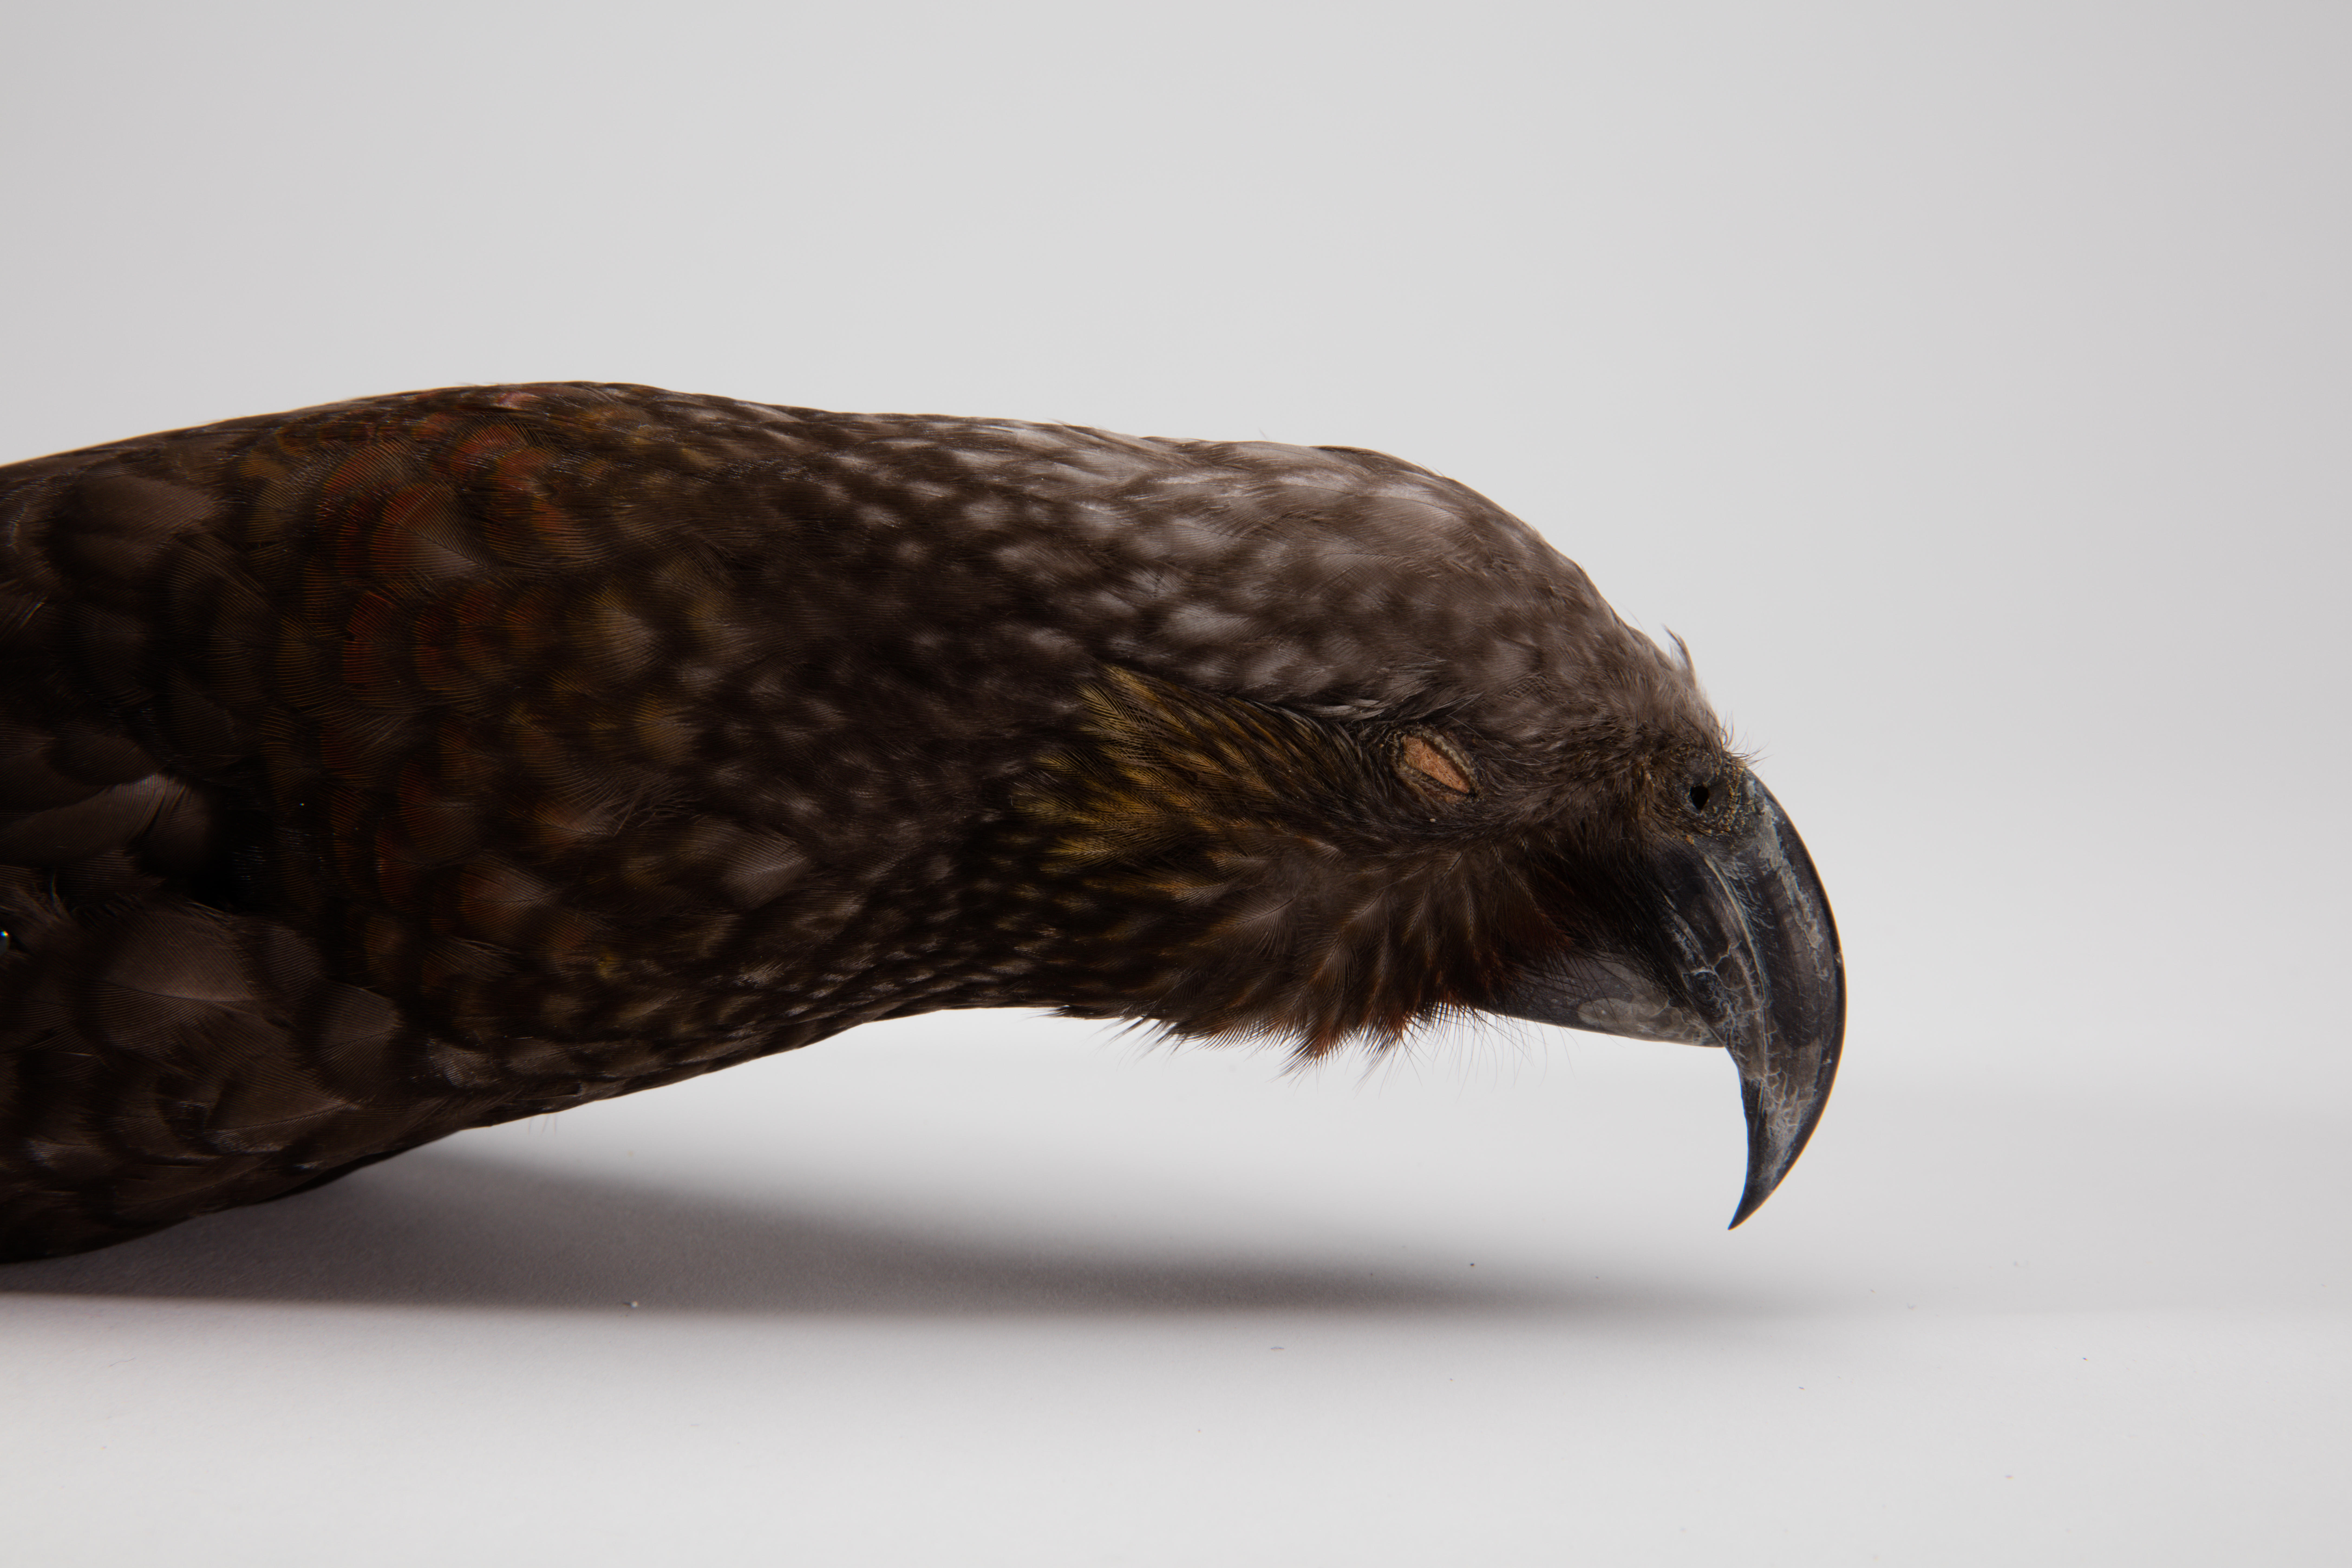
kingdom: Animalia
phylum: Chordata
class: Aves
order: Psittaciformes
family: Psittacidae
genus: Nestor
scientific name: Nestor meridionalis
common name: New zealand kaka
